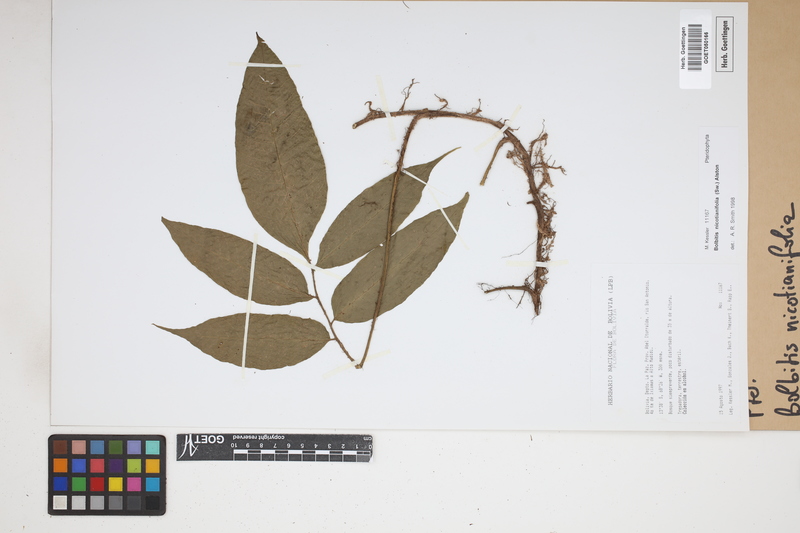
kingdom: Plantae
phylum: Tracheophyta
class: Polypodiopsida
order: Polypodiales
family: Dryopteridaceae
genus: Mickelia
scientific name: Mickelia nicotianifolia
